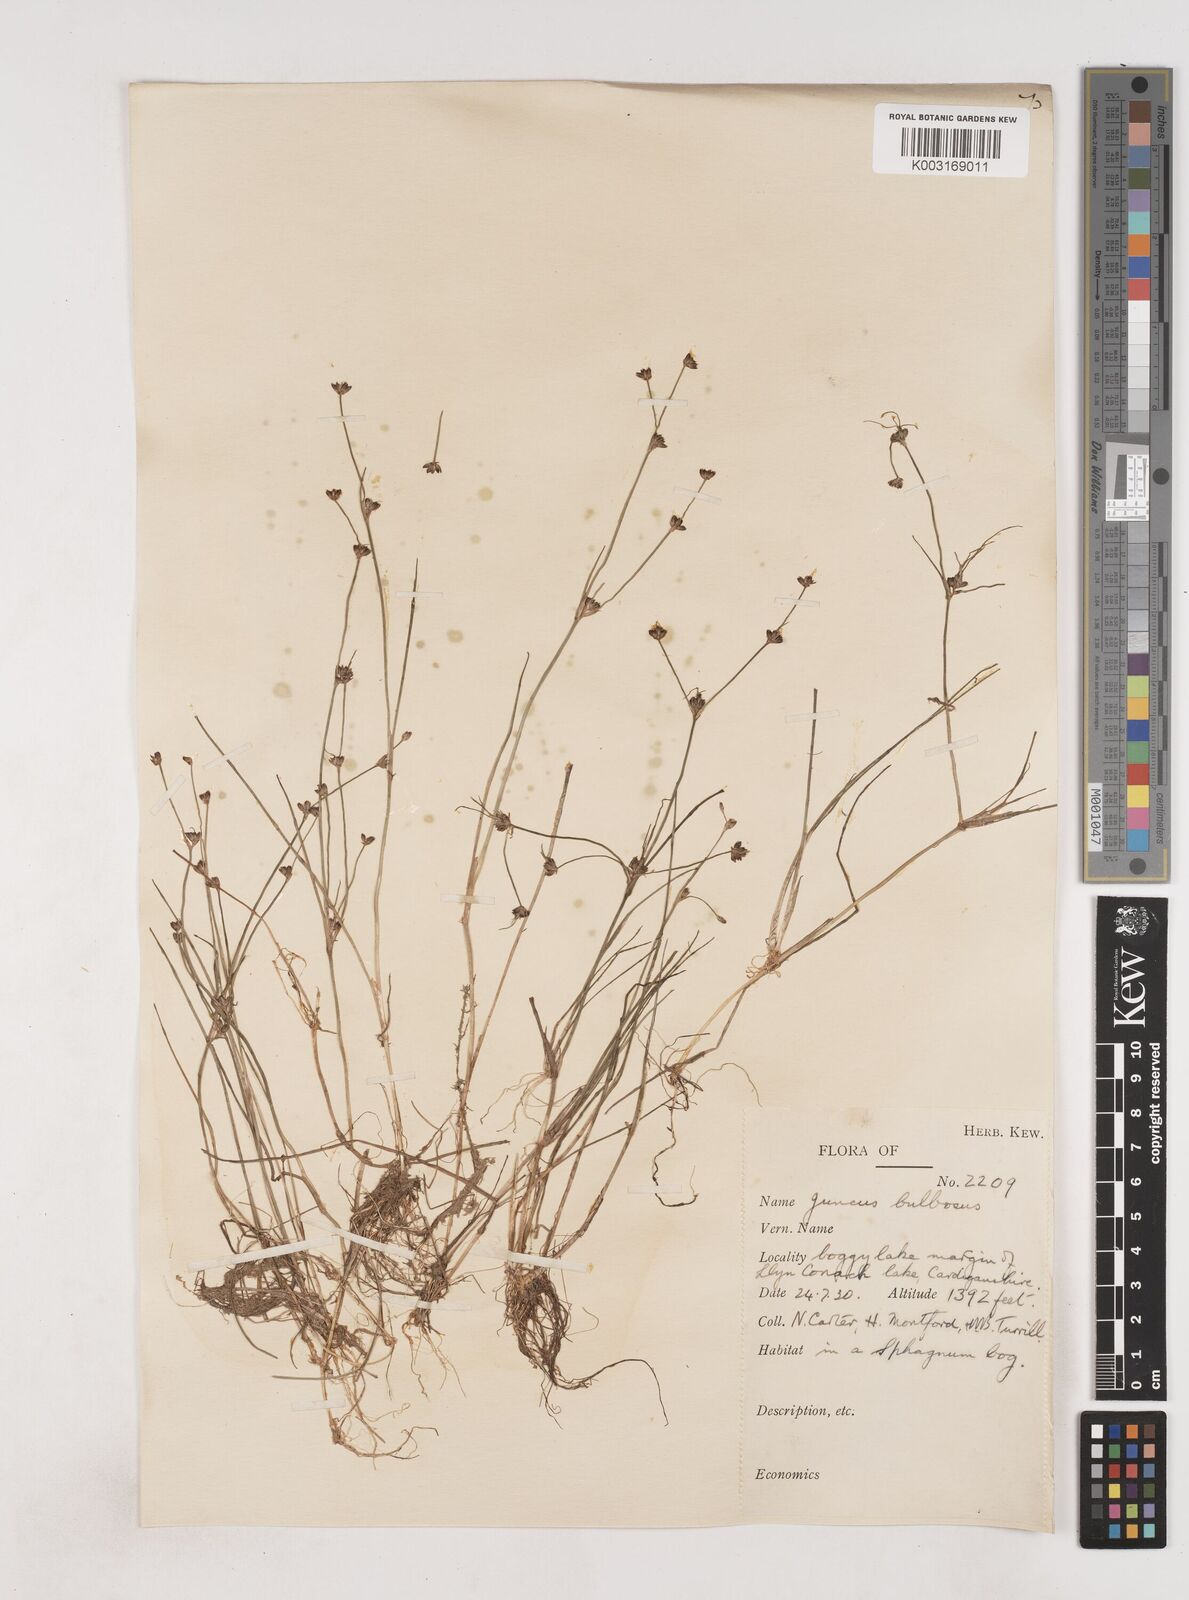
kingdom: Plantae
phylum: Tracheophyta
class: Liliopsida
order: Poales
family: Juncaceae
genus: Juncus
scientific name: Juncus bulbosus
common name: Bulbous rush
